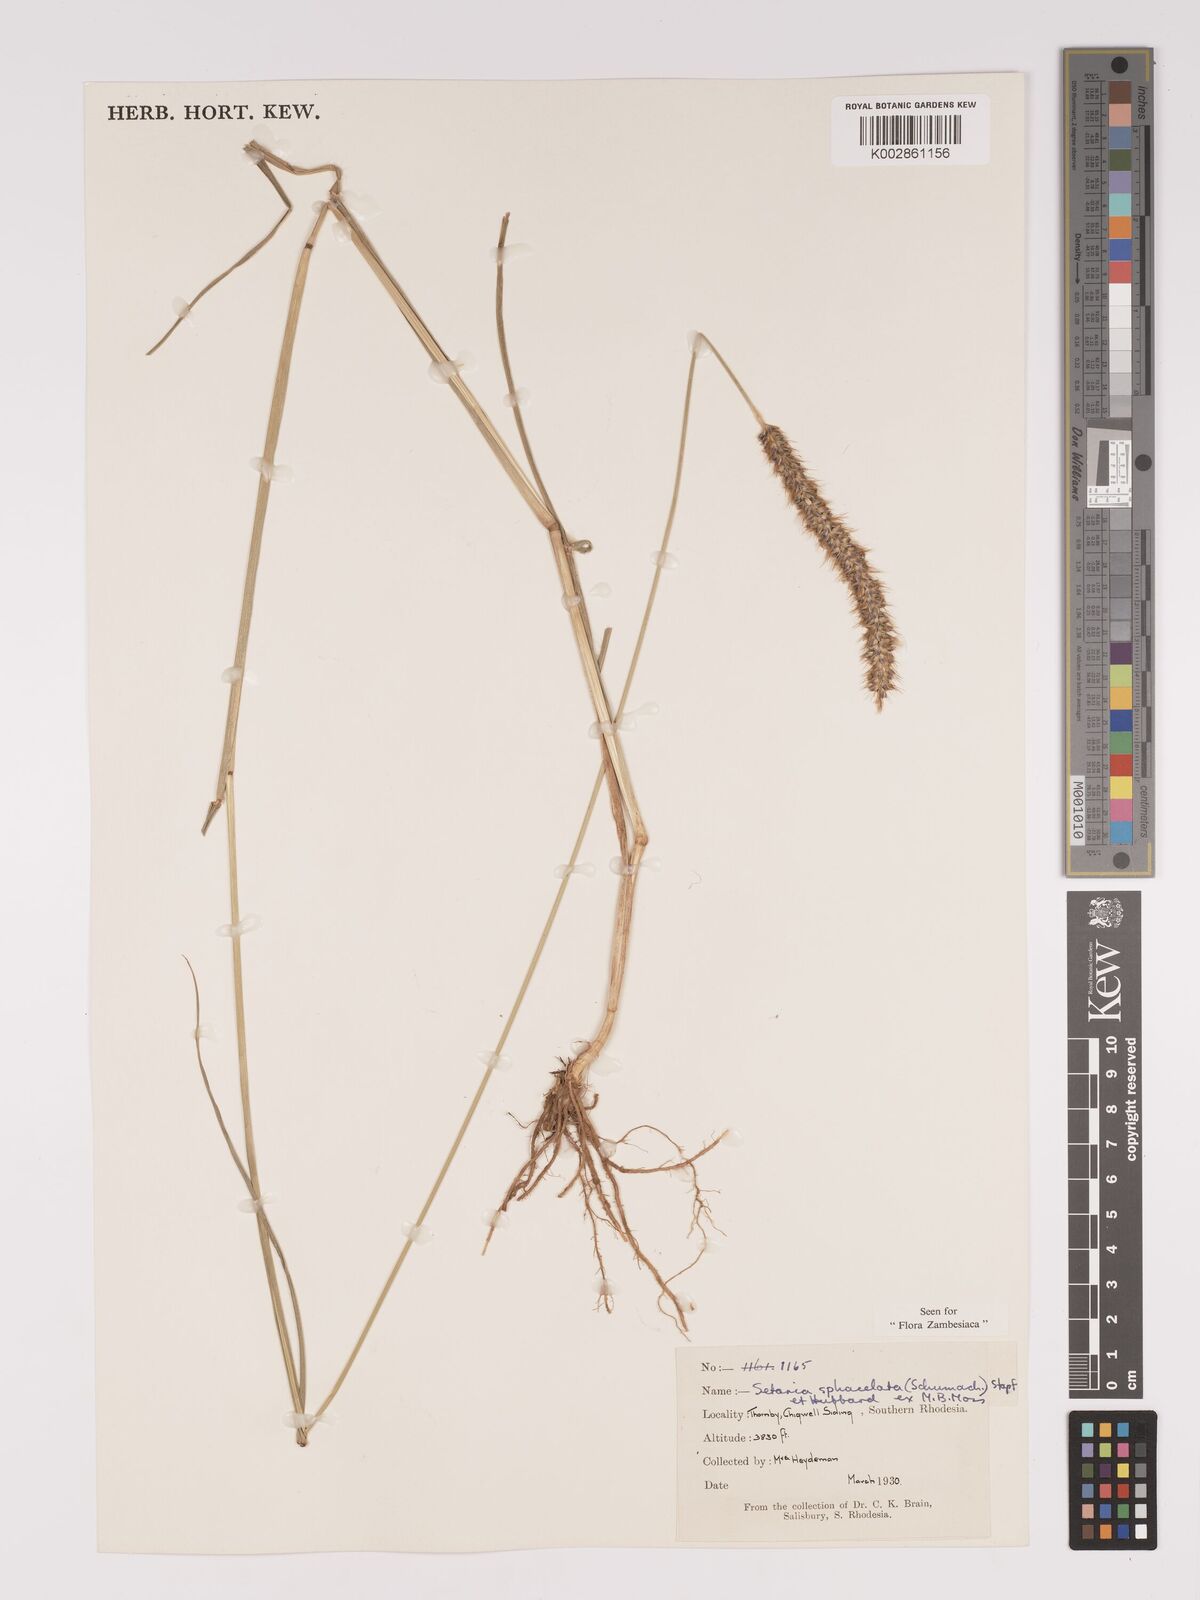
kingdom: Plantae
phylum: Tracheophyta
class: Liliopsida
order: Poales
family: Poaceae
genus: Setaria
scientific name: Setaria sphacelata
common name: African bristlegrass
